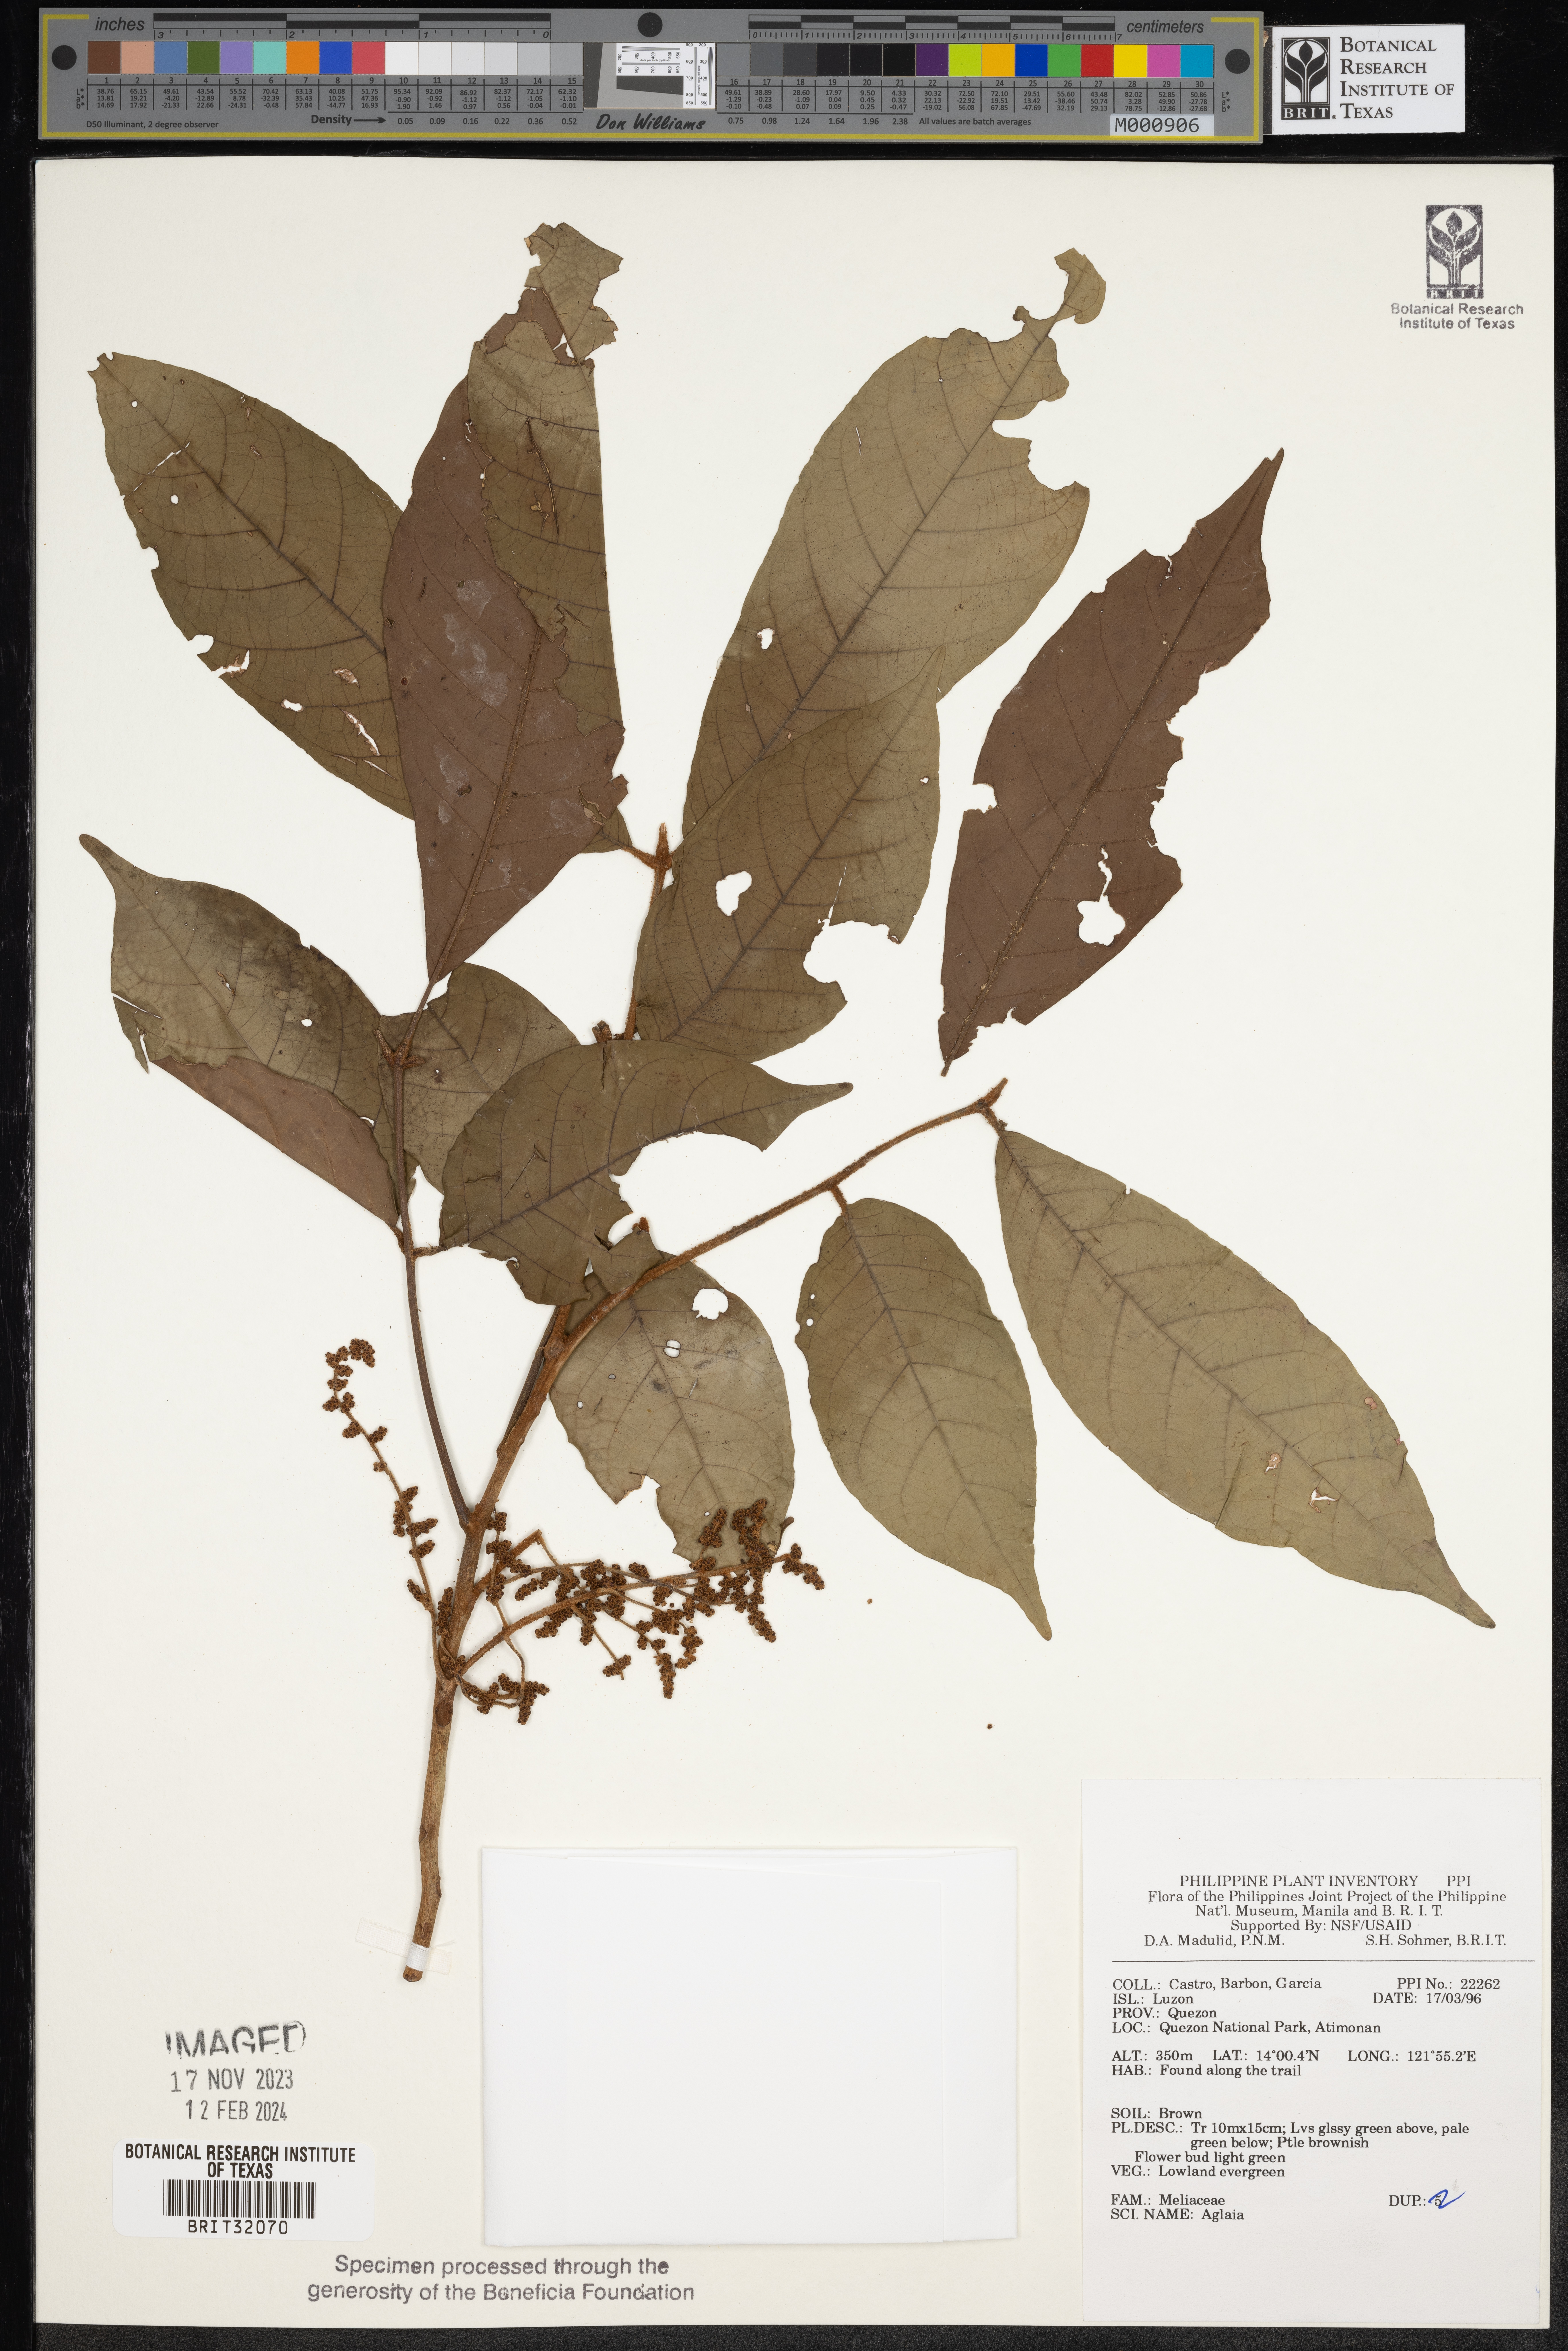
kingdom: Plantae
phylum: Tracheophyta
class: Magnoliopsida
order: Sapindales
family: Meliaceae
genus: Aglaia
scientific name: Aglaia
